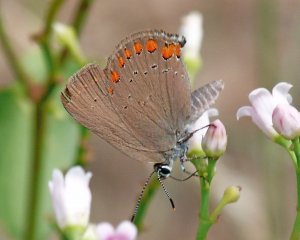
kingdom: Animalia
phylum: Arthropoda
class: Insecta
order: Lepidoptera
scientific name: Lepidoptera
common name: Butterflies
